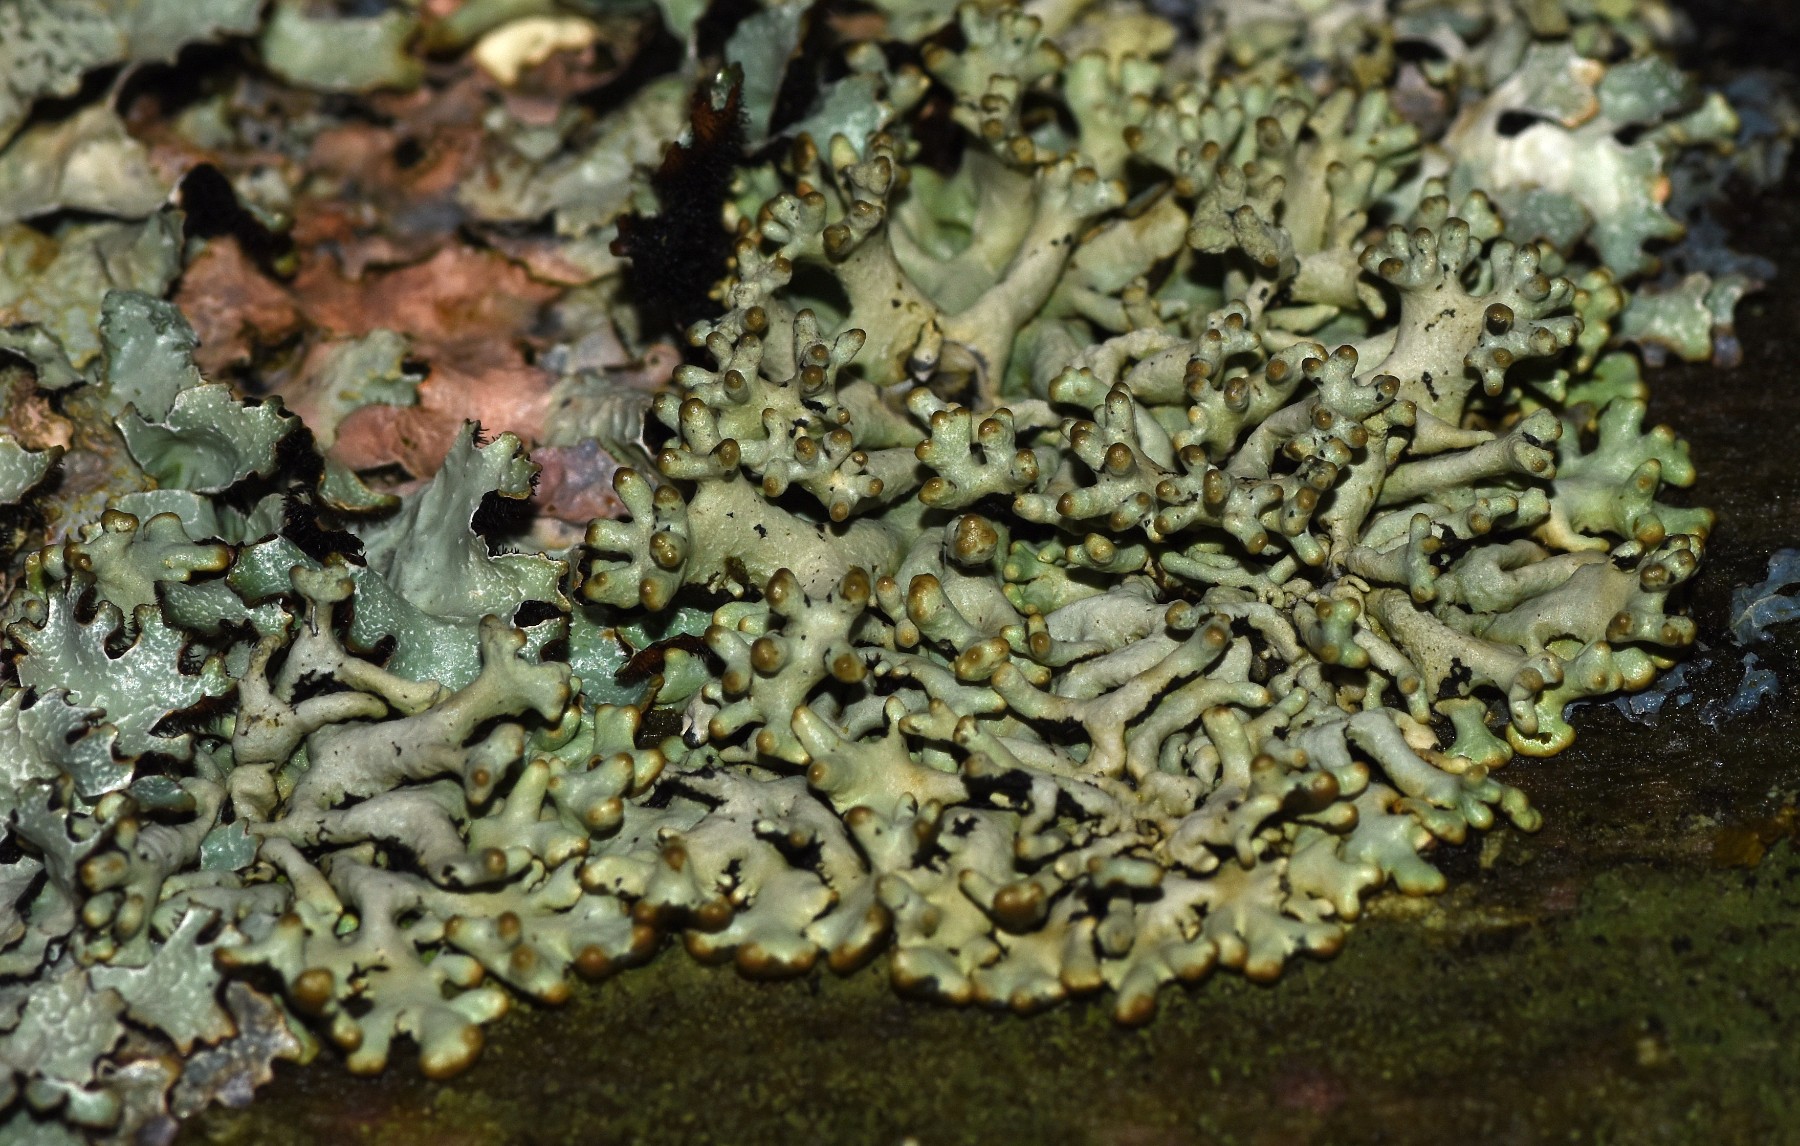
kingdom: Fungi
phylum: Ascomycota
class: Lecanoromycetes
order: Lecanorales
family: Parmeliaceae
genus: Hypogymnia
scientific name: Hypogymnia tubulosa
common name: finger-kvistlav
